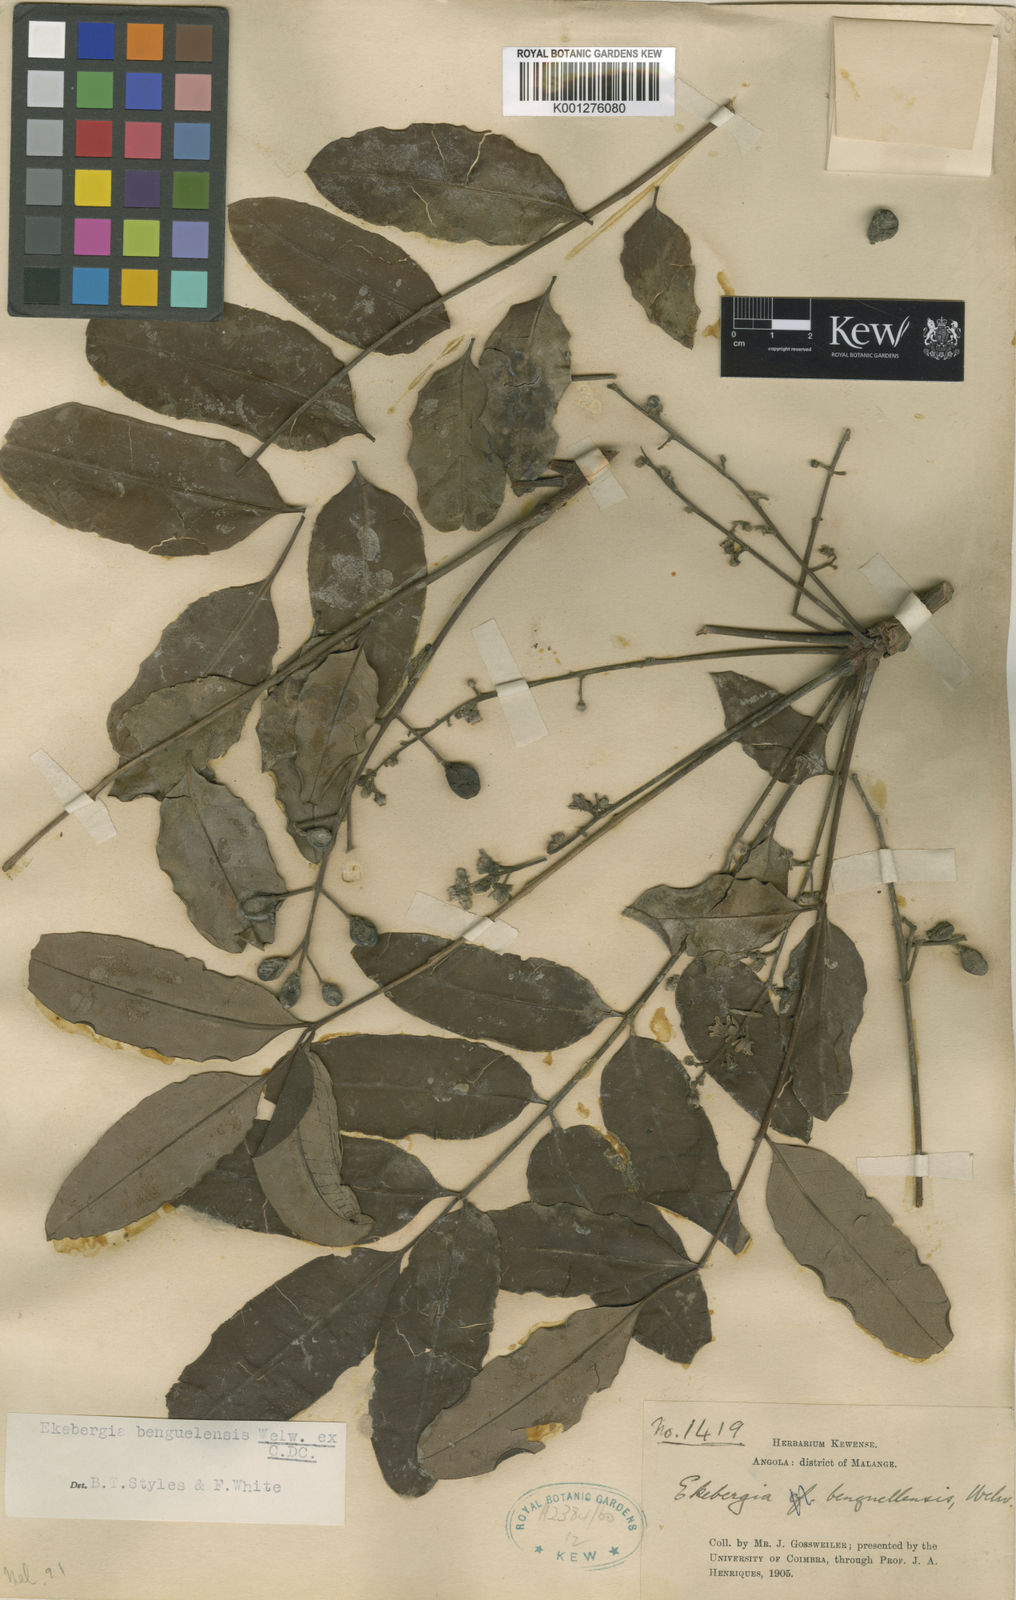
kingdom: Plantae
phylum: Tracheophyta
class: Magnoliopsida
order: Sapindales
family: Meliaceae
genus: Ekebergia
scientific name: Ekebergia benguelensis
